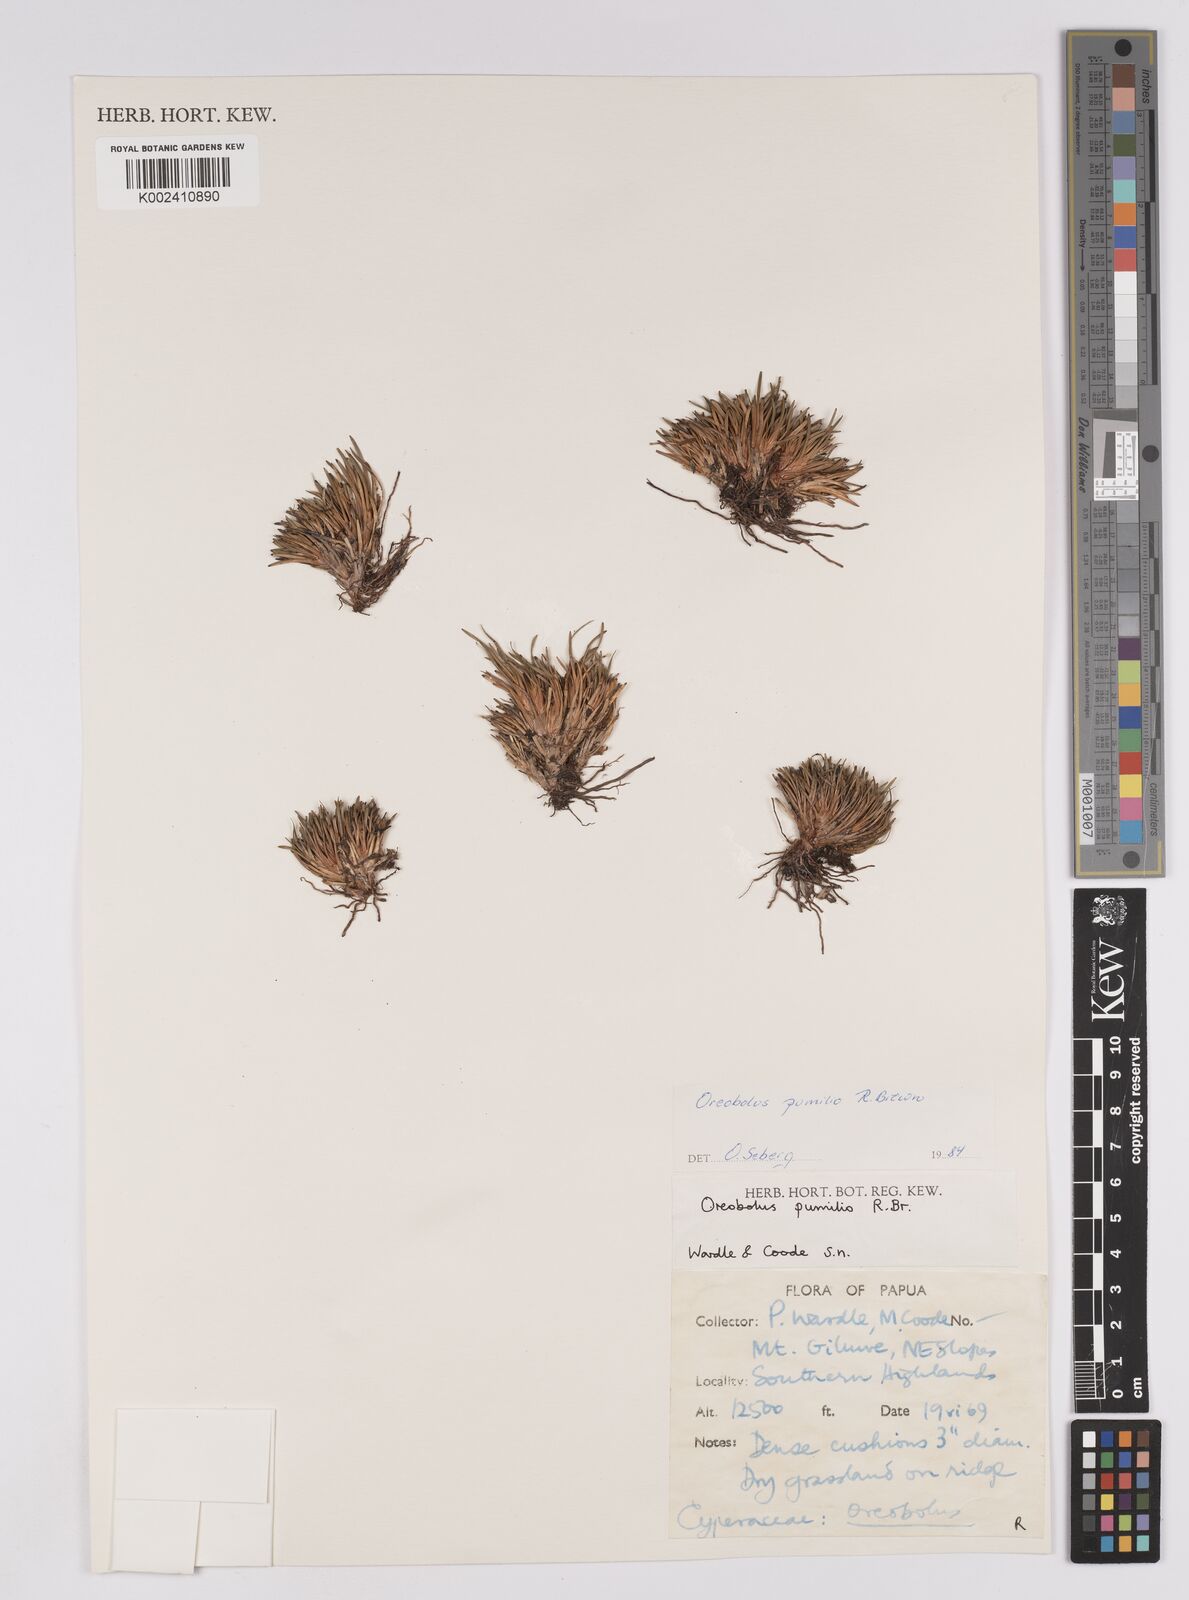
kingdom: Plantae
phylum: Tracheophyta
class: Liliopsida
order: Poales
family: Cyperaceae
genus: Oreobolus
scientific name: Oreobolus pumilio
